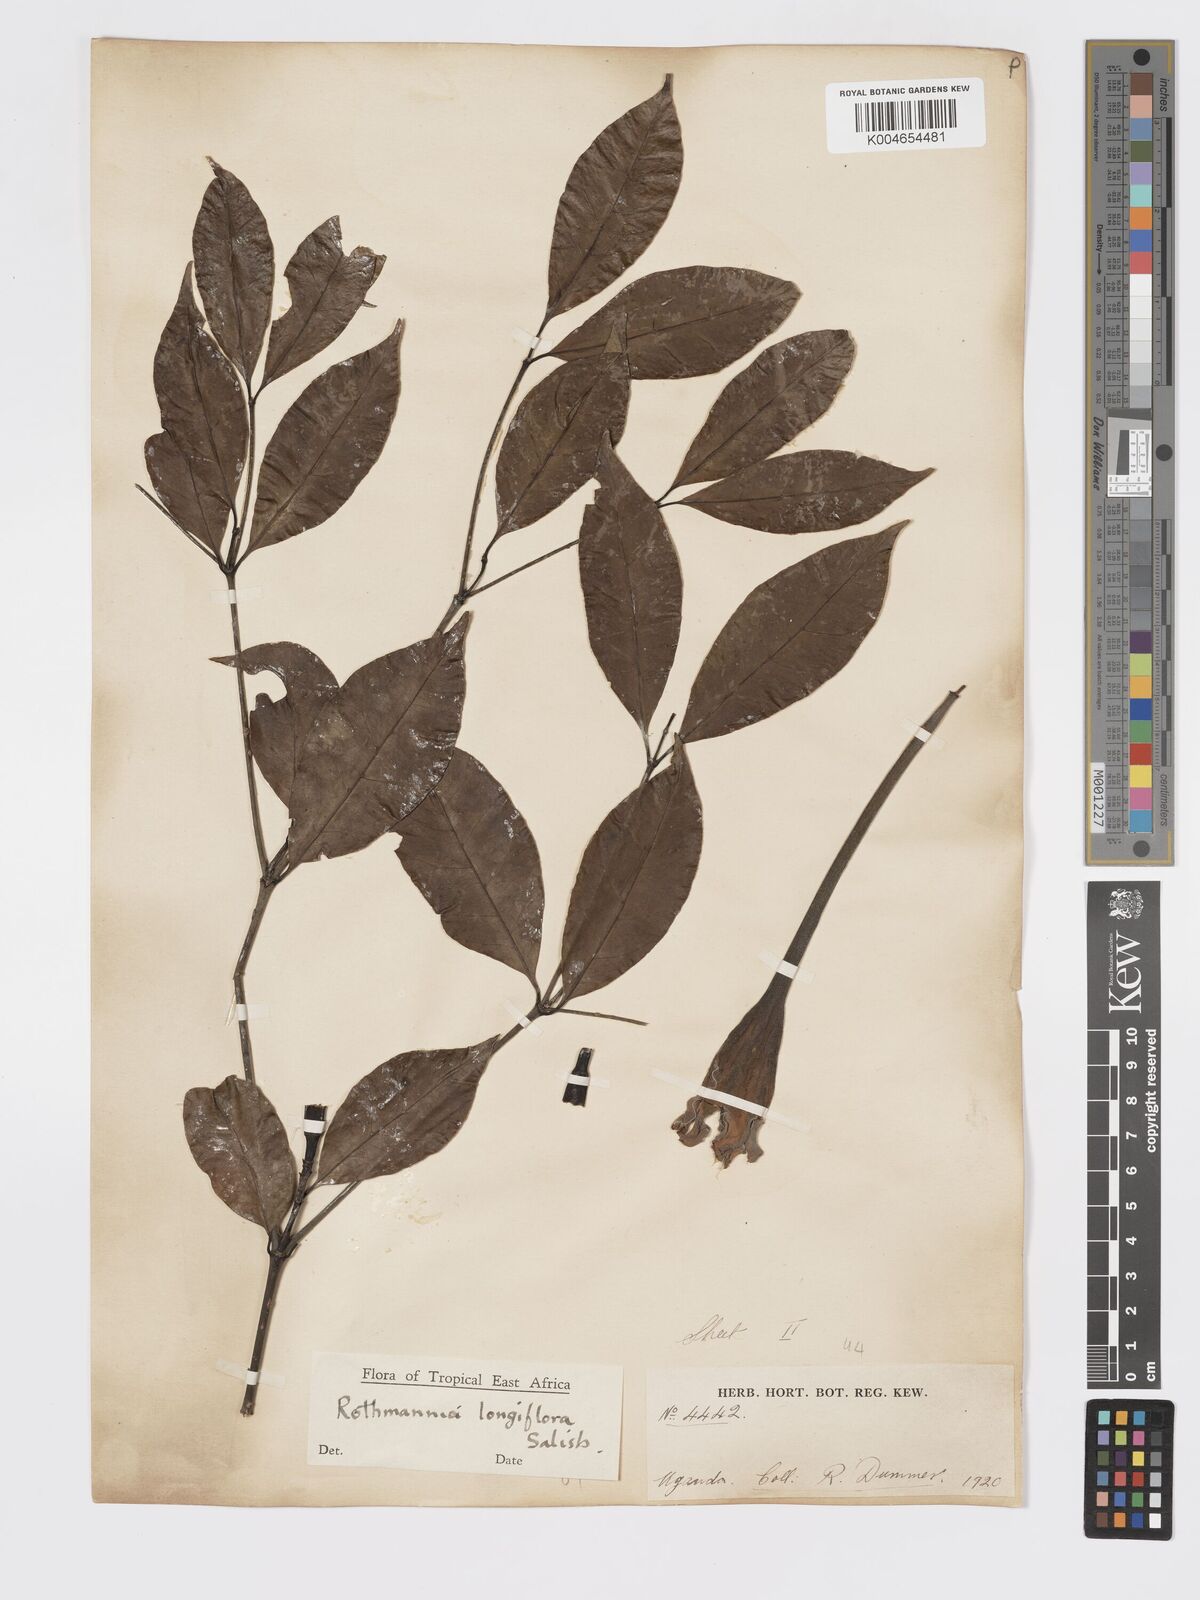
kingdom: Plantae
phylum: Tracheophyta
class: Magnoliopsida
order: Gentianales
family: Rubiaceae
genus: Rothmannia
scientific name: Rothmannia longiflora
